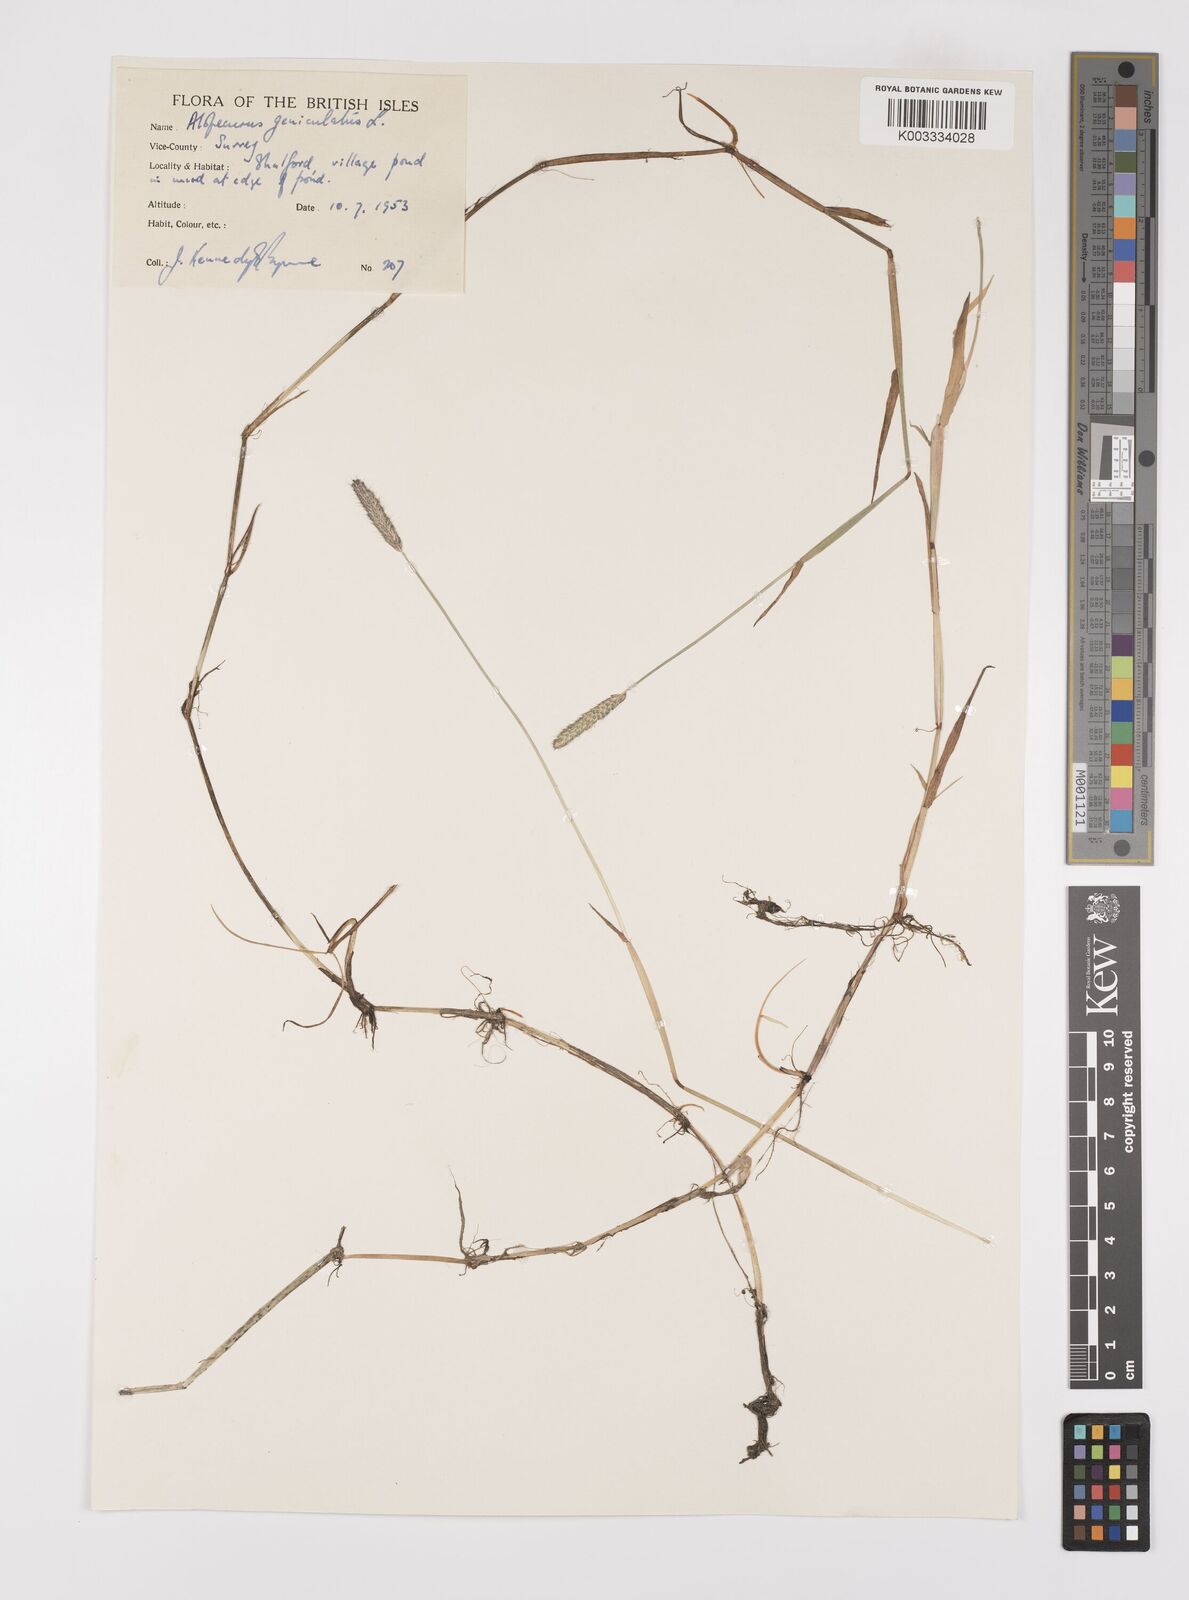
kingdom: Plantae
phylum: Tracheophyta
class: Liliopsida
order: Poales
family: Poaceae
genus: Alopecurus
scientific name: Alopecurus geniculatus
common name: Water foxtail
